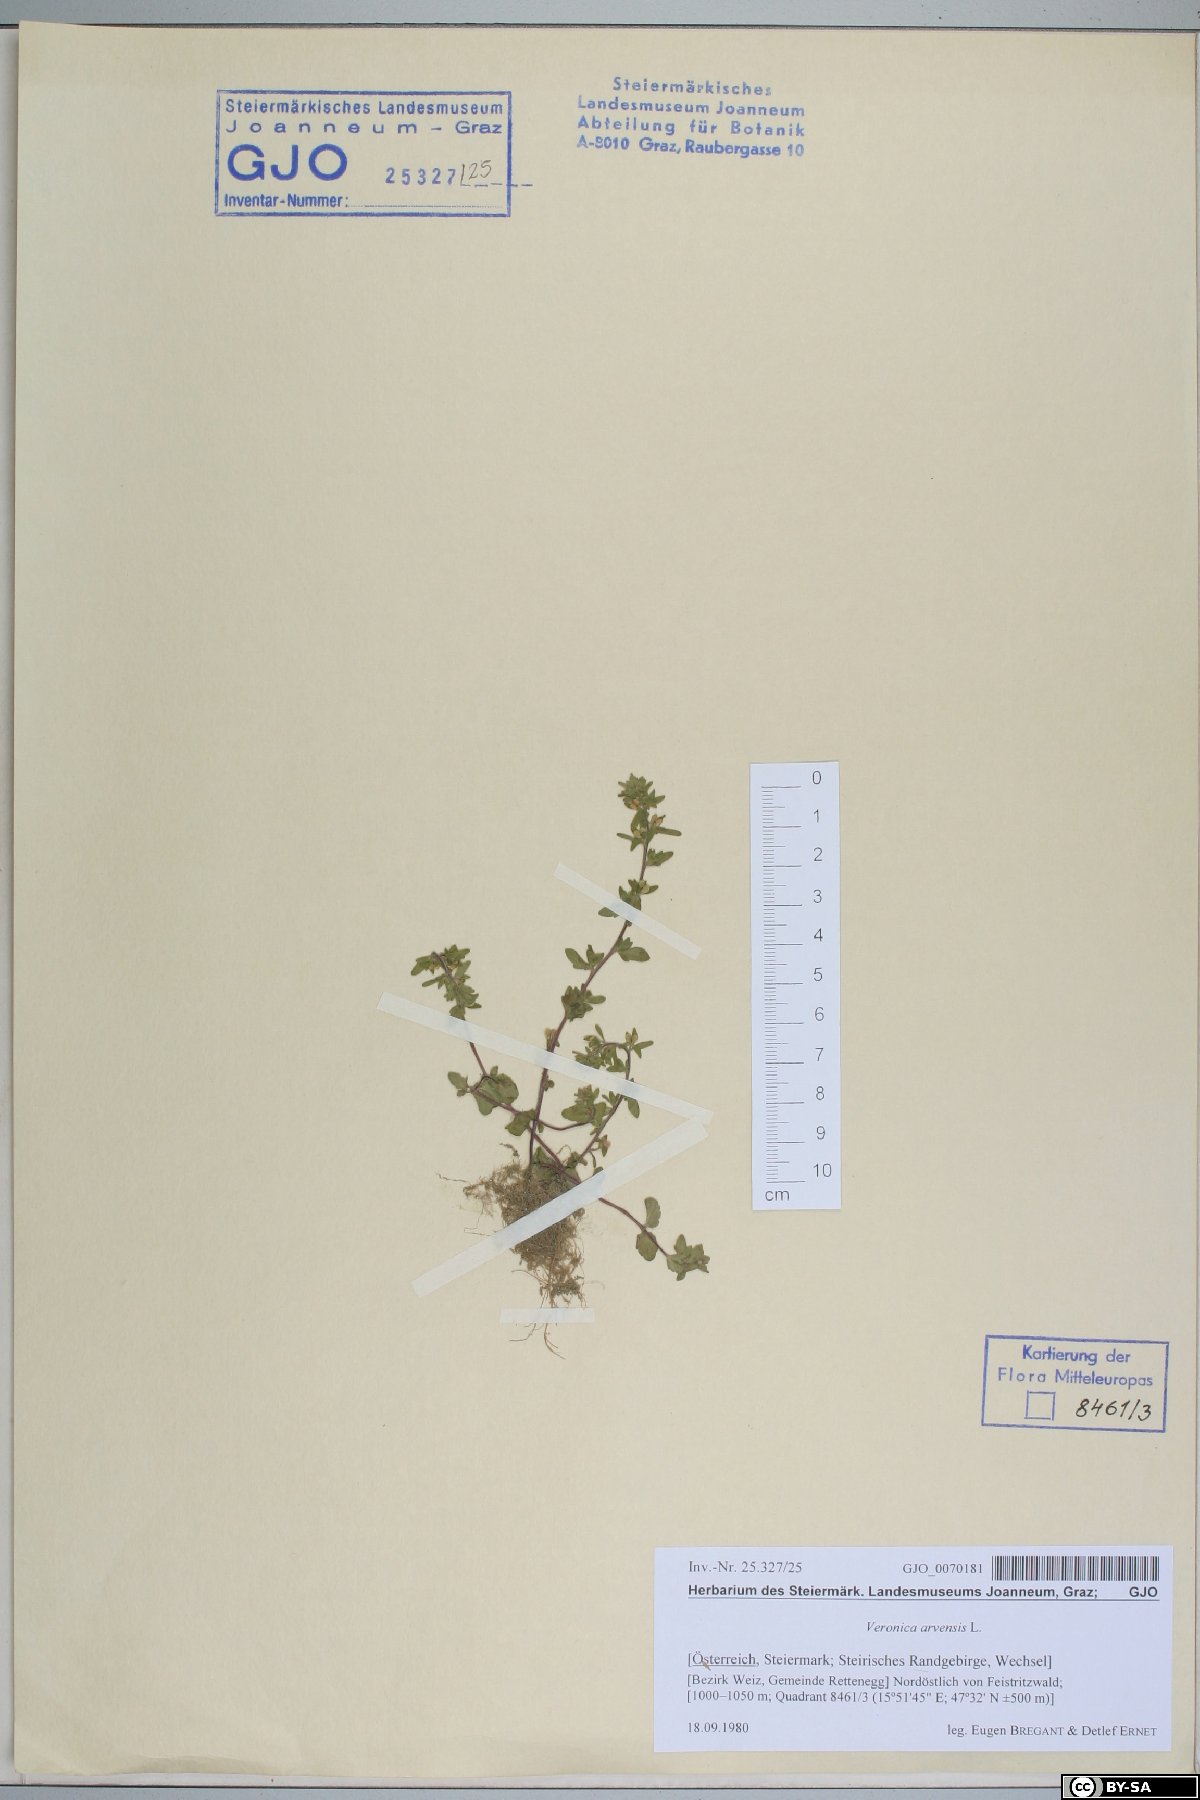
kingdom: Plantae
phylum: Tracheophyta
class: Magnoliopsida
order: Lamiales
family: Plantaginaceae
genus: Veronica
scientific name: Veronica arvensis
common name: Corn speedwell
